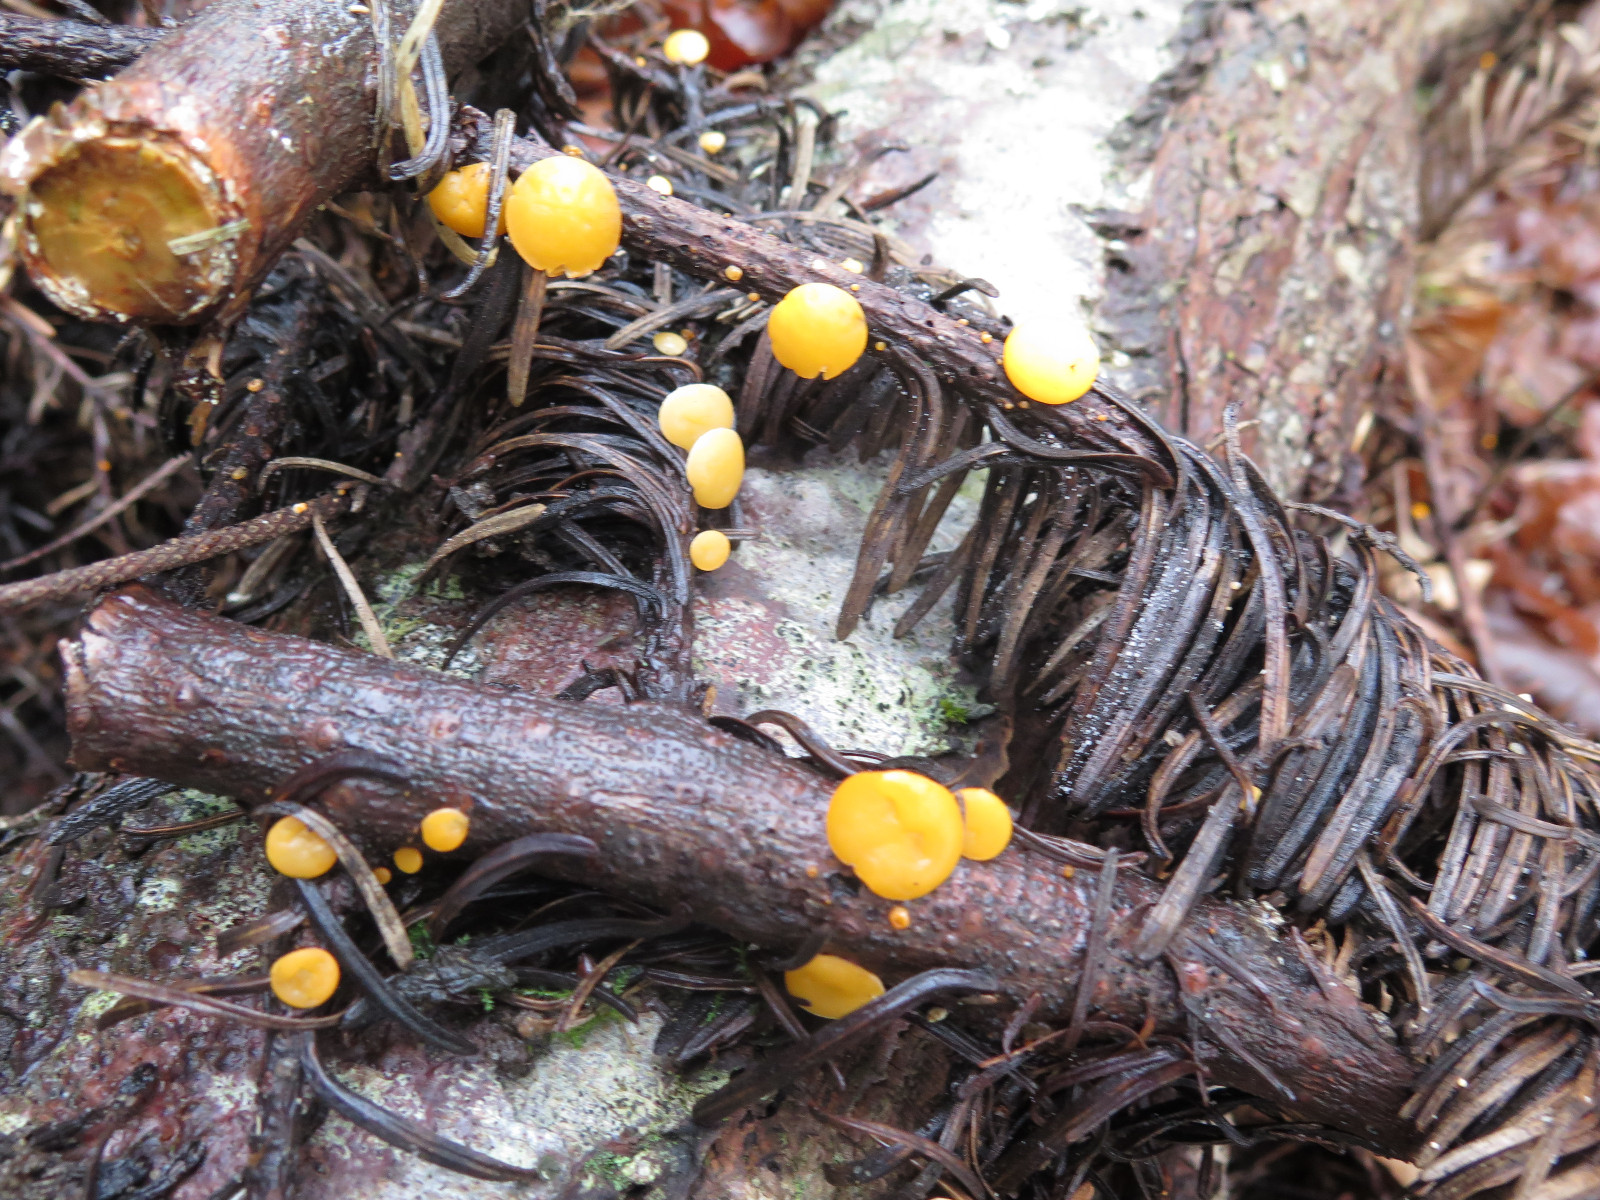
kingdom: Fungi
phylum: Ascomycota
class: Pezizomycetes
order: Pezizales
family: Sarcoscyphaceae
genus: Pithya
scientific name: Pithya vulgaris
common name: stor dukatbæger
